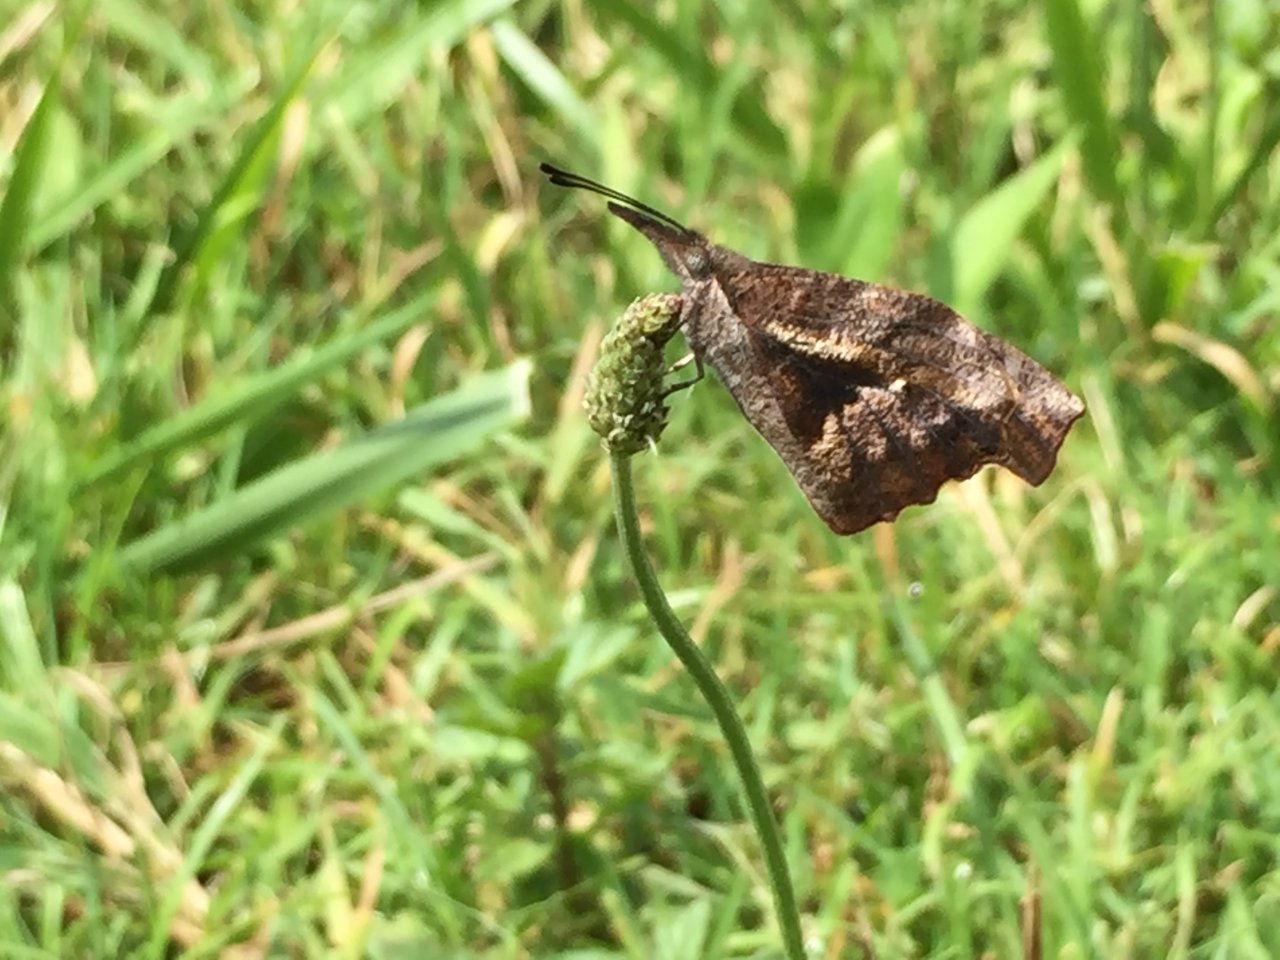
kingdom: Animalia
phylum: Arthropoda
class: Insecta
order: Lepidoptera
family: Nymphalidae
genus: Libytheana
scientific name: Libytheana carinenta
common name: American Snout
